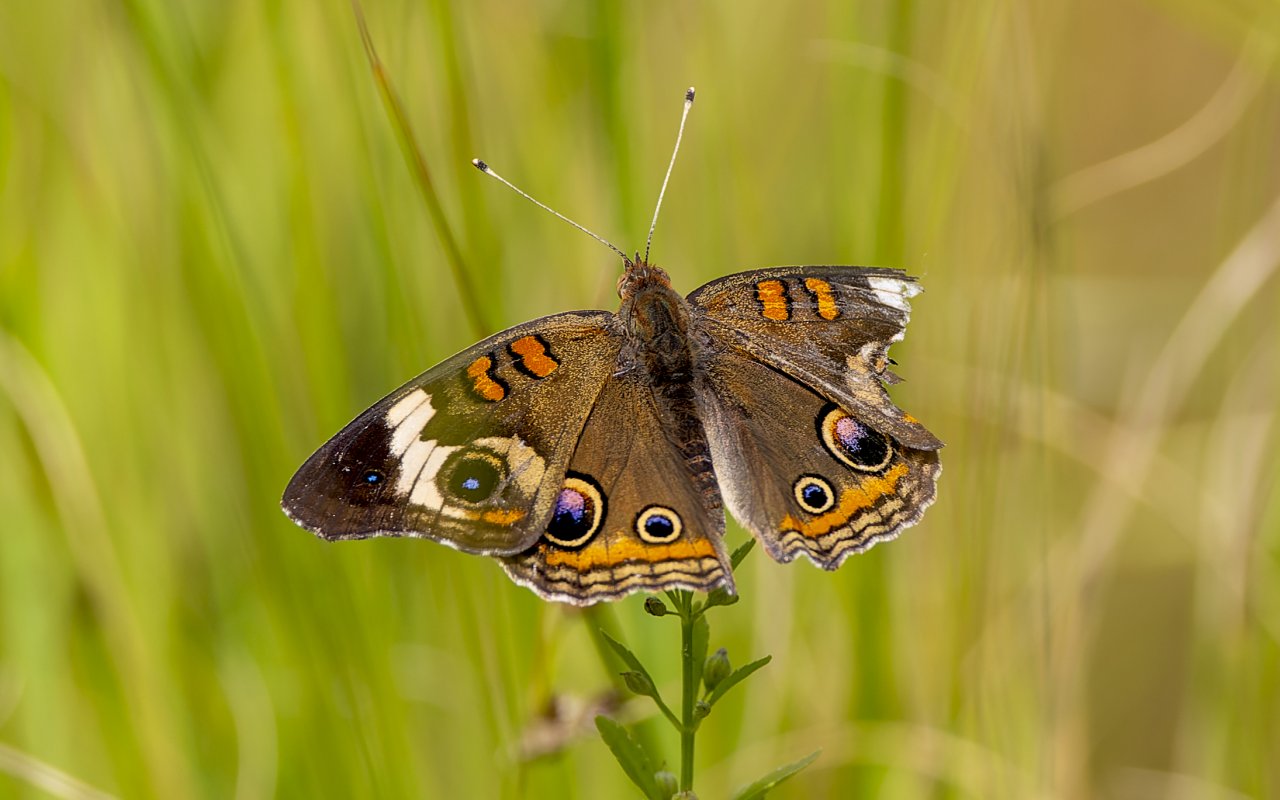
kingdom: Animalia
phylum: Arthropoda
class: Insecta
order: Lepidoptera
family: Nymphalidae
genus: Junonia
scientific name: Junonia coenia
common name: Common Buckeye
